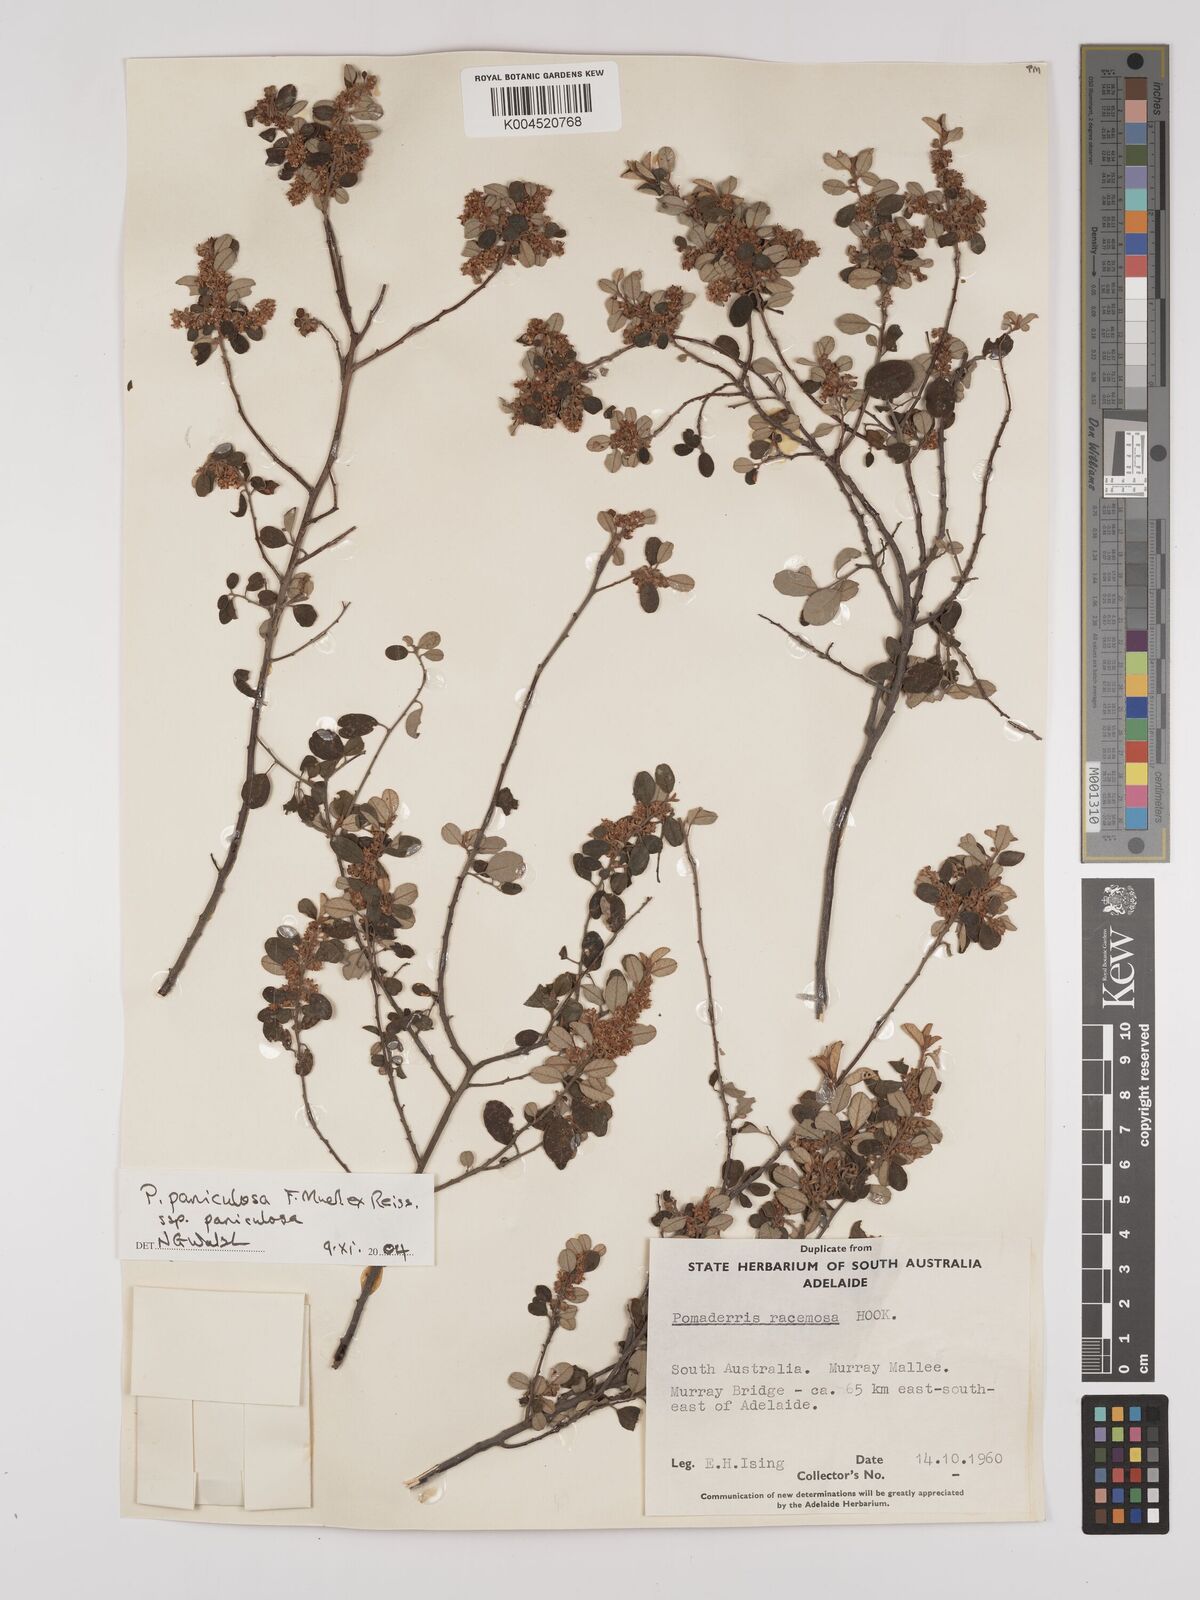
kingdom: Plantae
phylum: Tracheophyta
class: Magnoliopsida
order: Rosales
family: Rhamnaceae
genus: Pomaderris
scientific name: Pomaderris paniculosa
